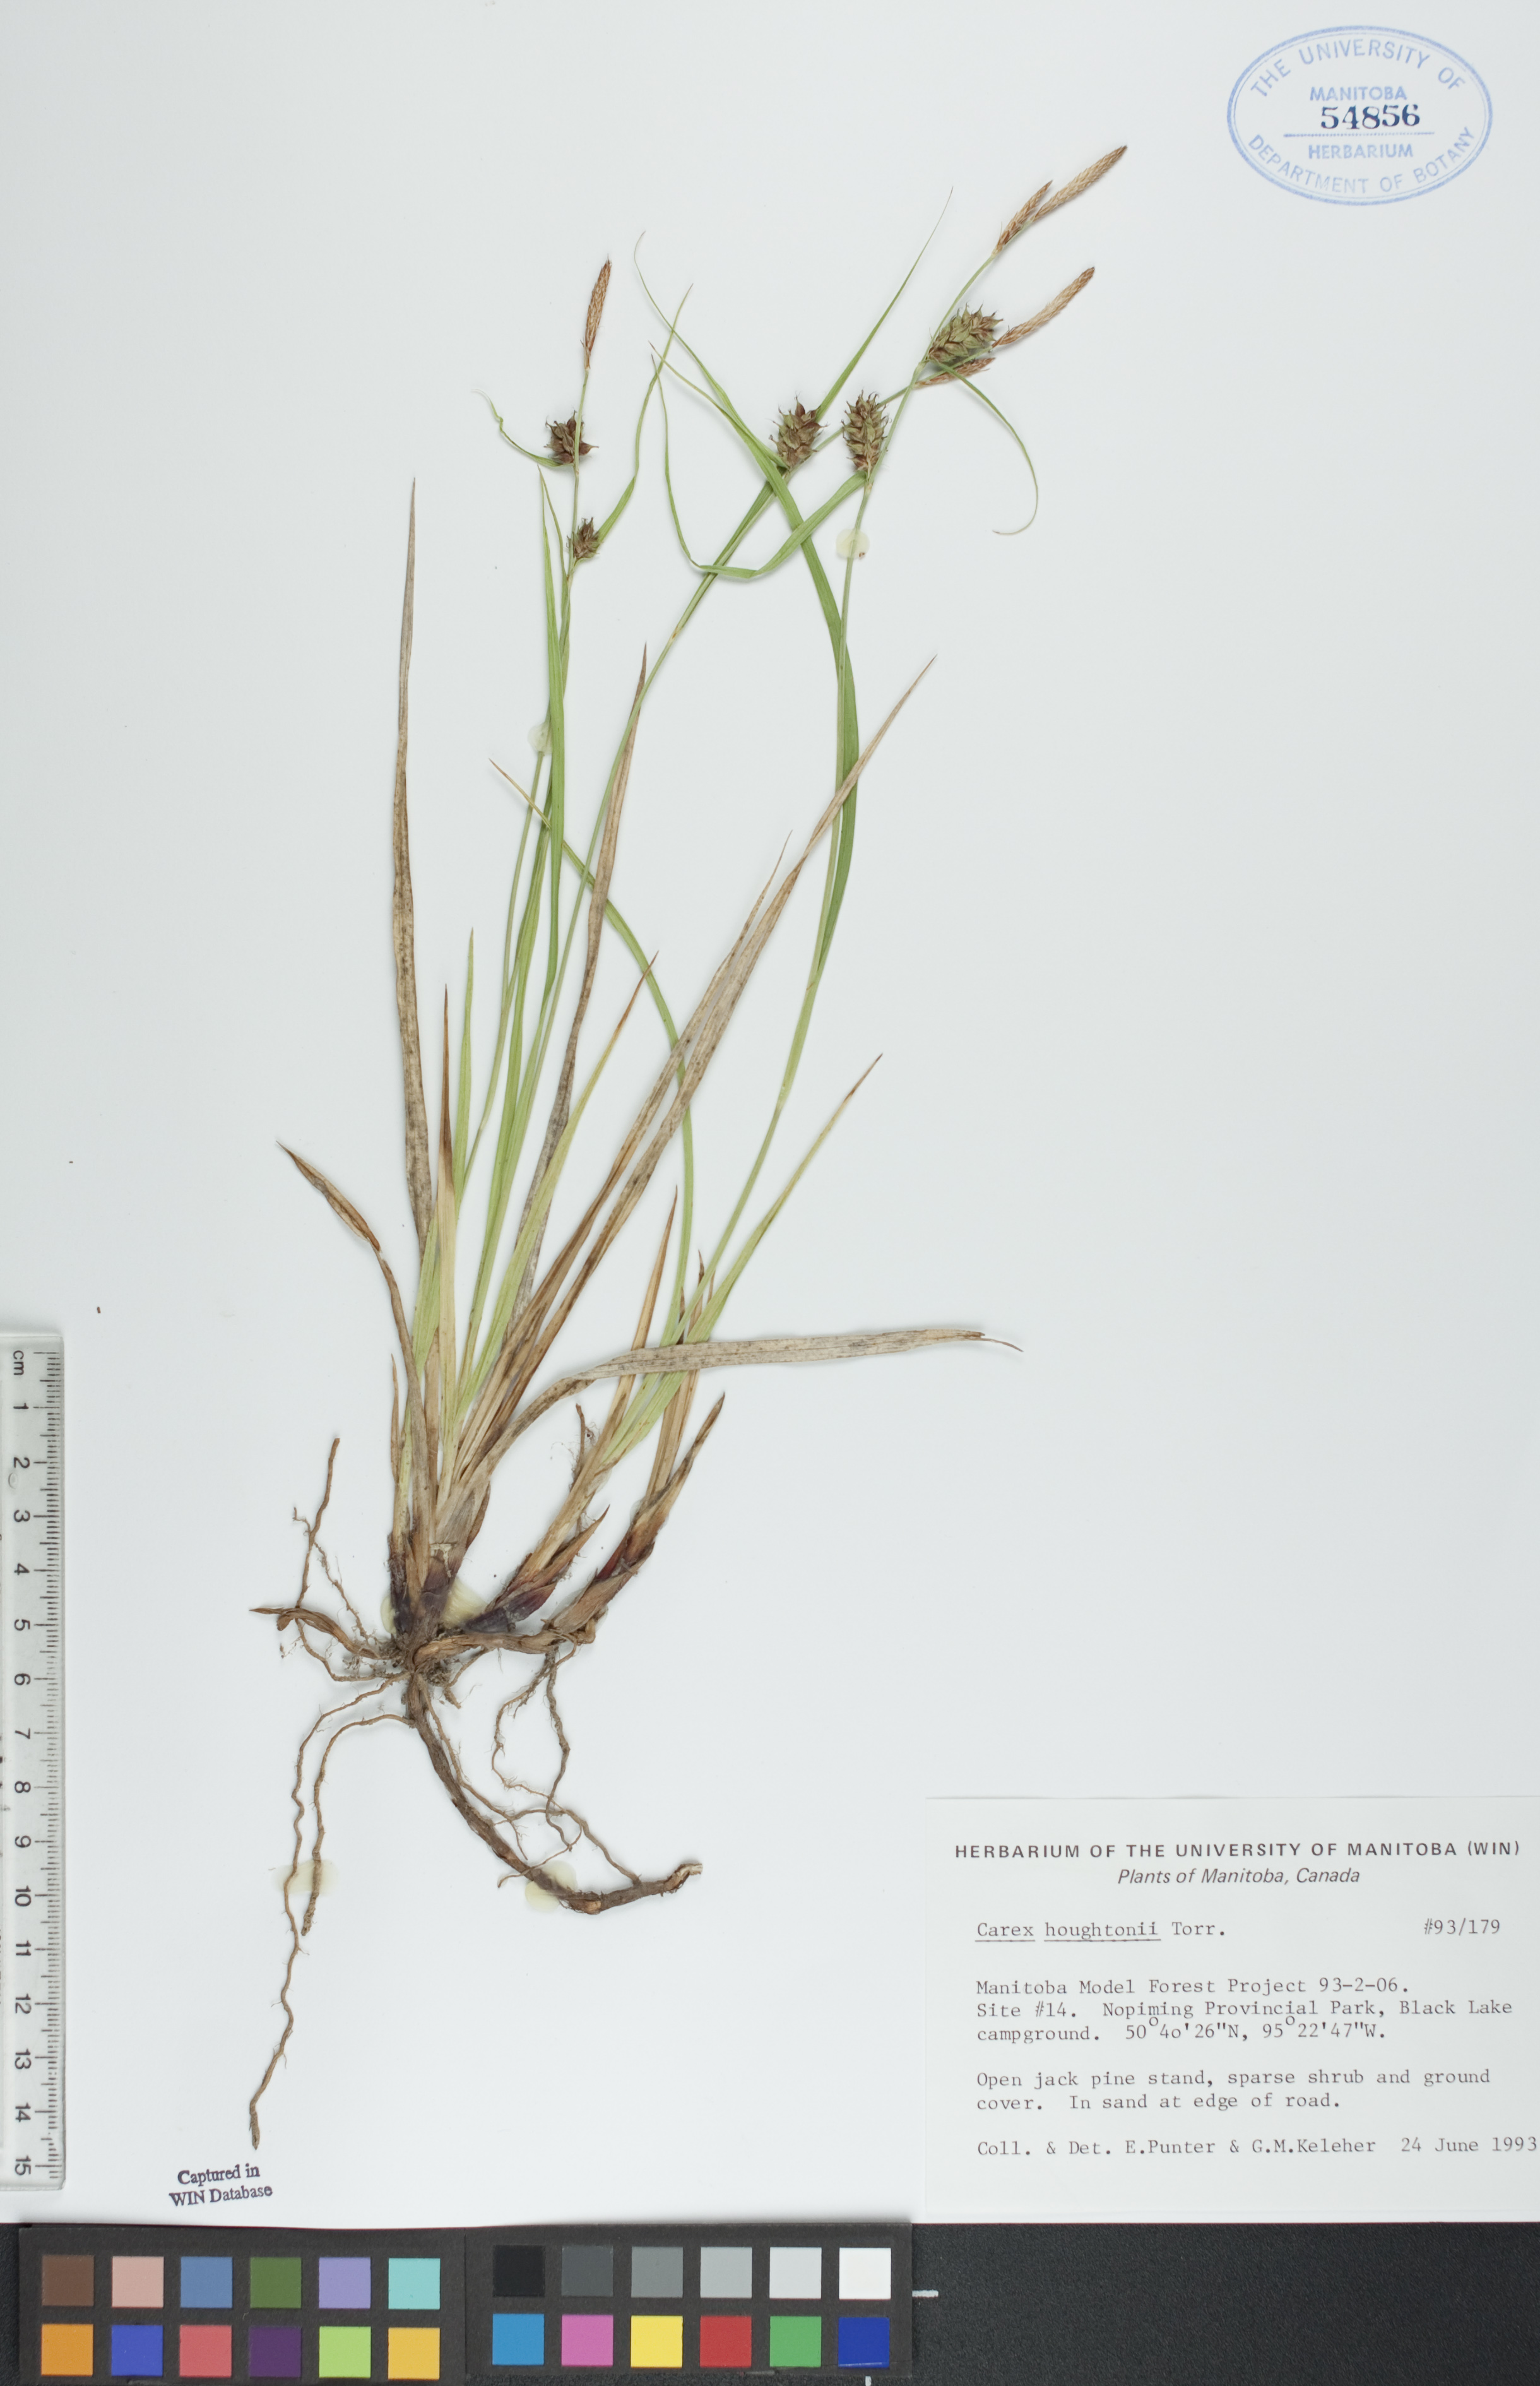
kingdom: Plantae
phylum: Tracheophyta
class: Liliopsida
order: Poales
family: Cyperaceae
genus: Carex
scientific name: Carex houghtoniana
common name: Houghton's sedge
